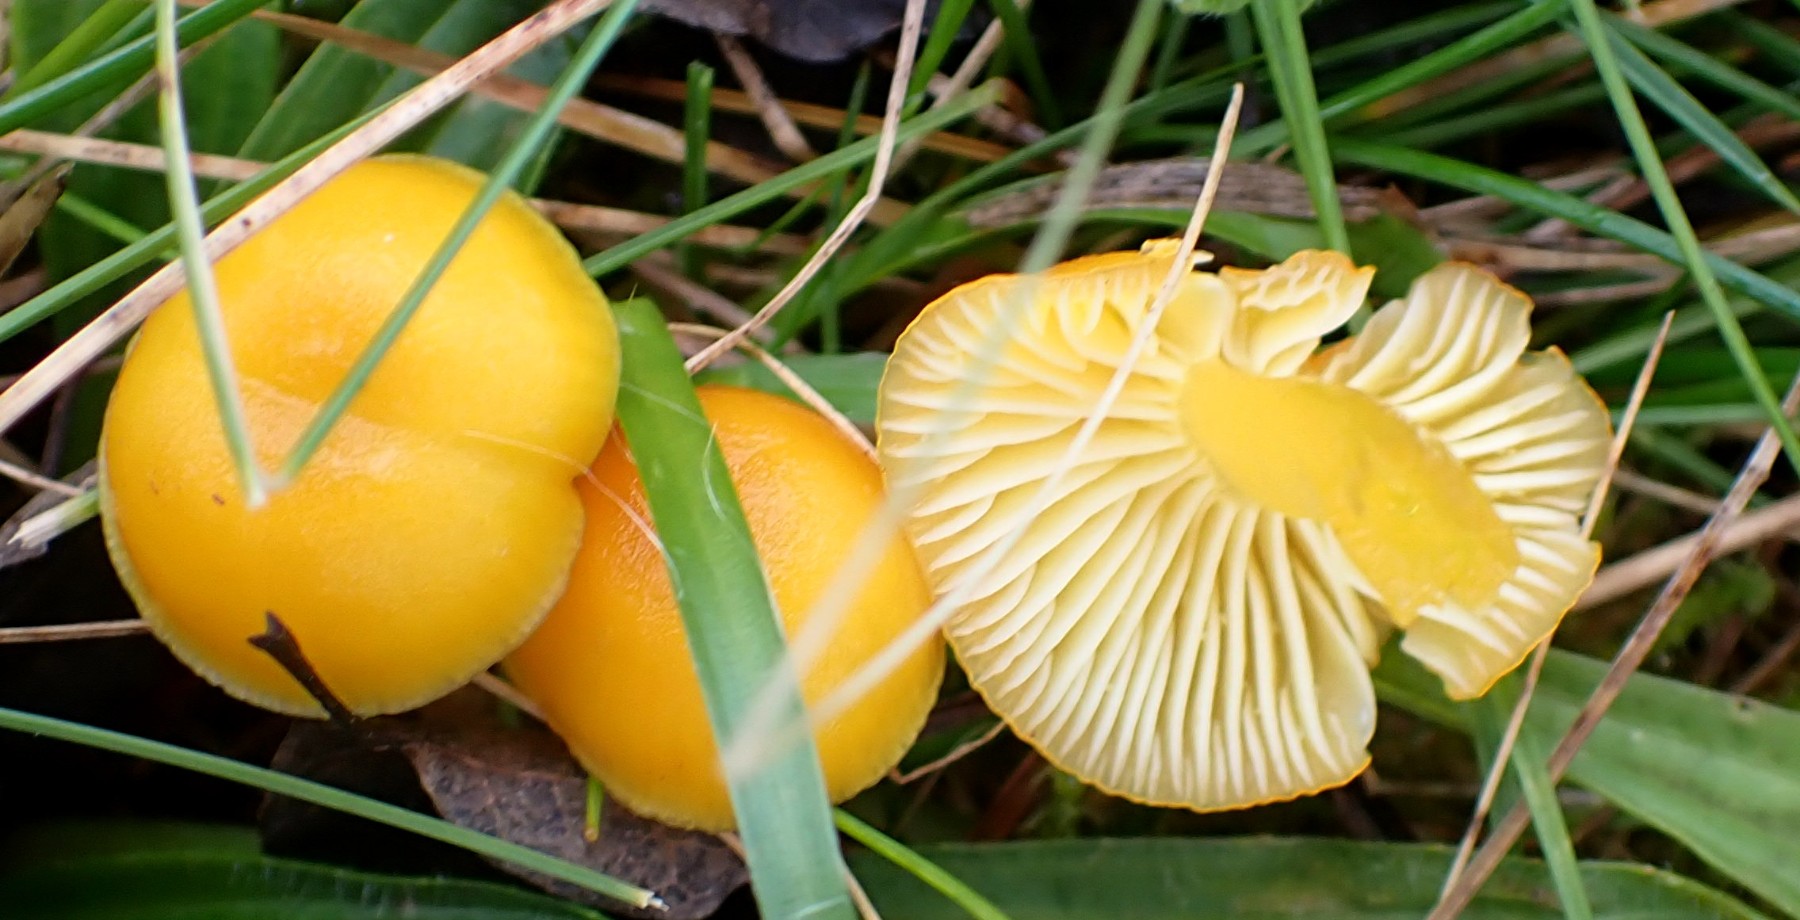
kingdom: Fungi
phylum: Basidiomycota
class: Agaricomycetes
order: Agaricales
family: Hygrophoraceae
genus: Hygrocybe
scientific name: Hygrocybe ceracea
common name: voksgul vokshat
